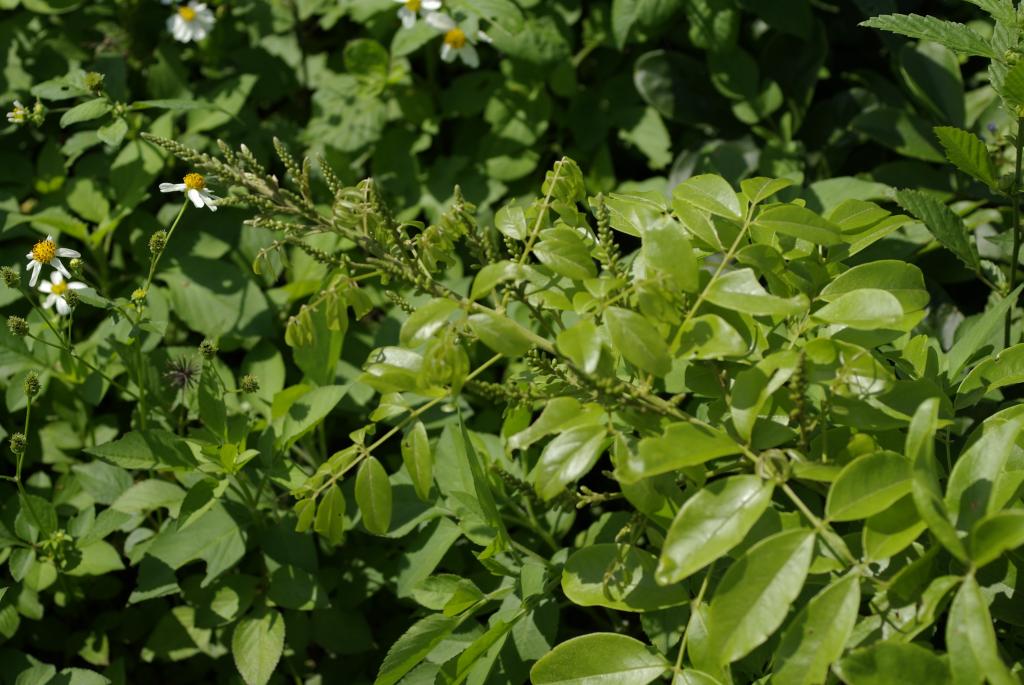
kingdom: Plantae
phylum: Tracheophyta
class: Magnoliopsida
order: Fabales
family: Fabaceae
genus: Wisteriopsis
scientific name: Wisteriopsis reticulata
